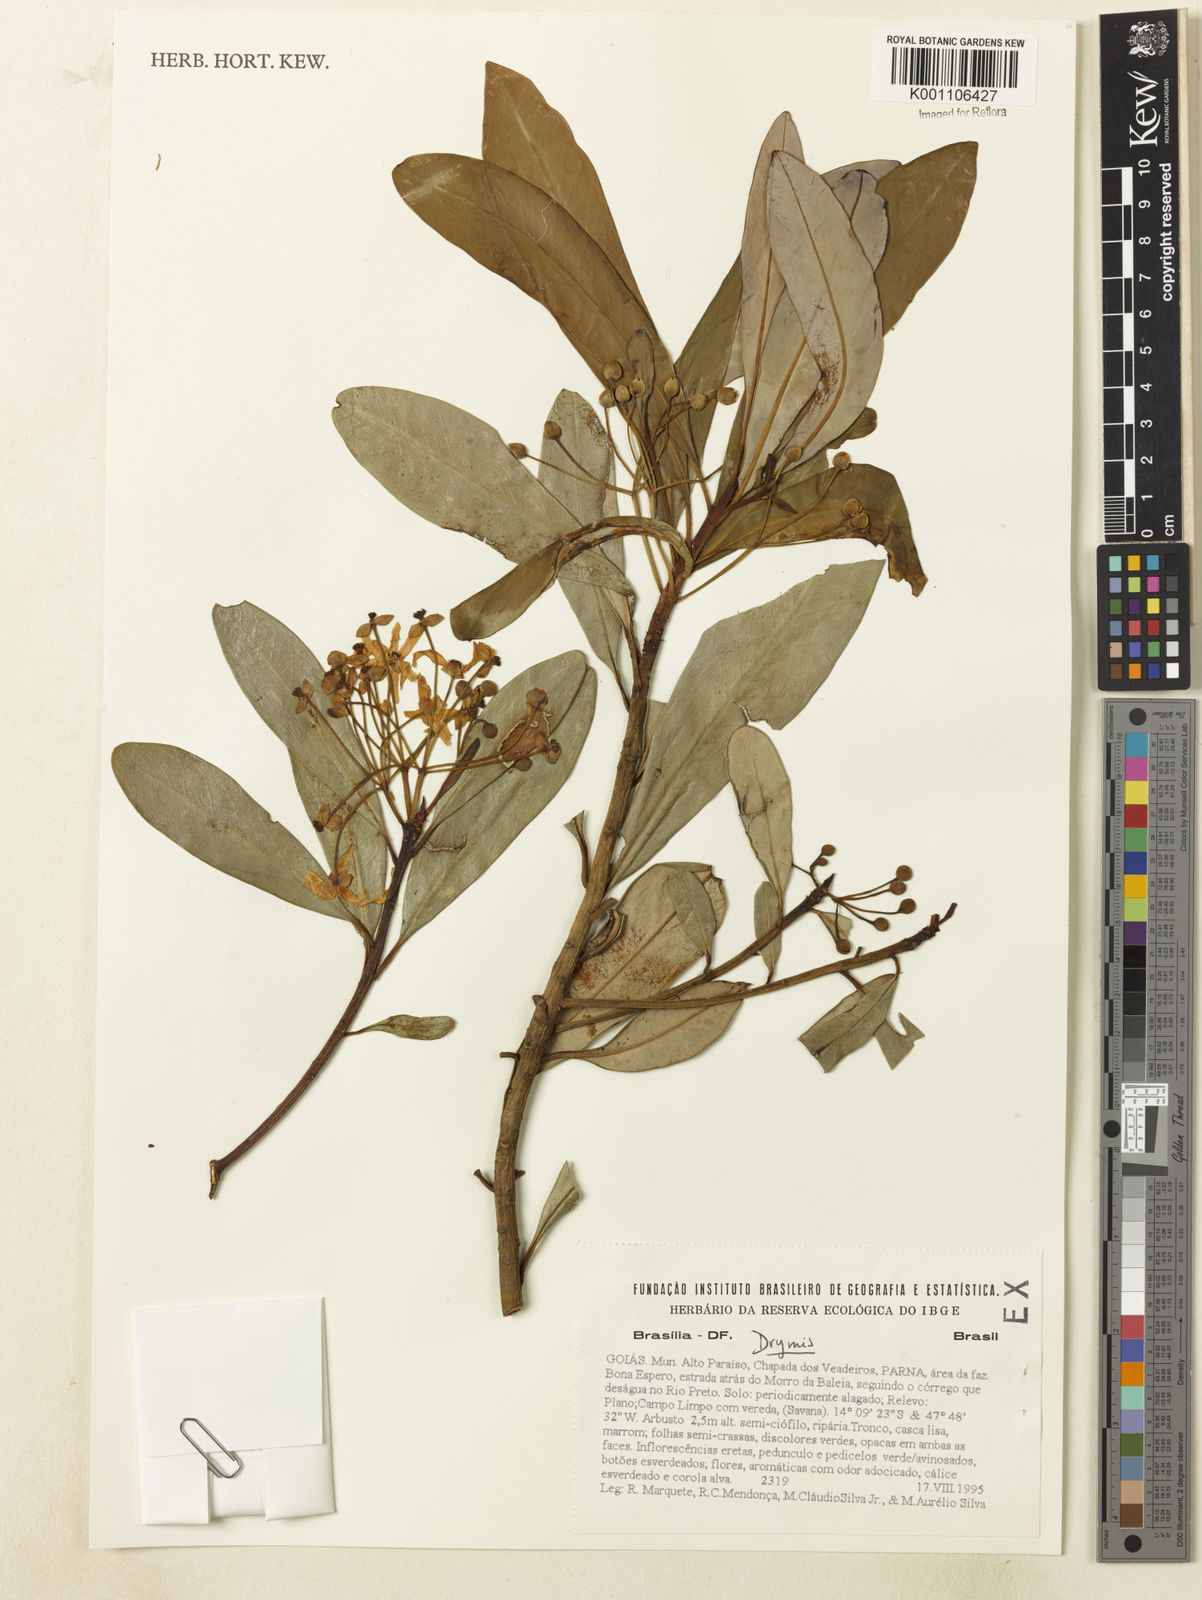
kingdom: Plantae
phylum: Tracheophyta
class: Magnoliopsida
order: Canellales
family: Winteraceae
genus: Drimys
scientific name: Drimys
